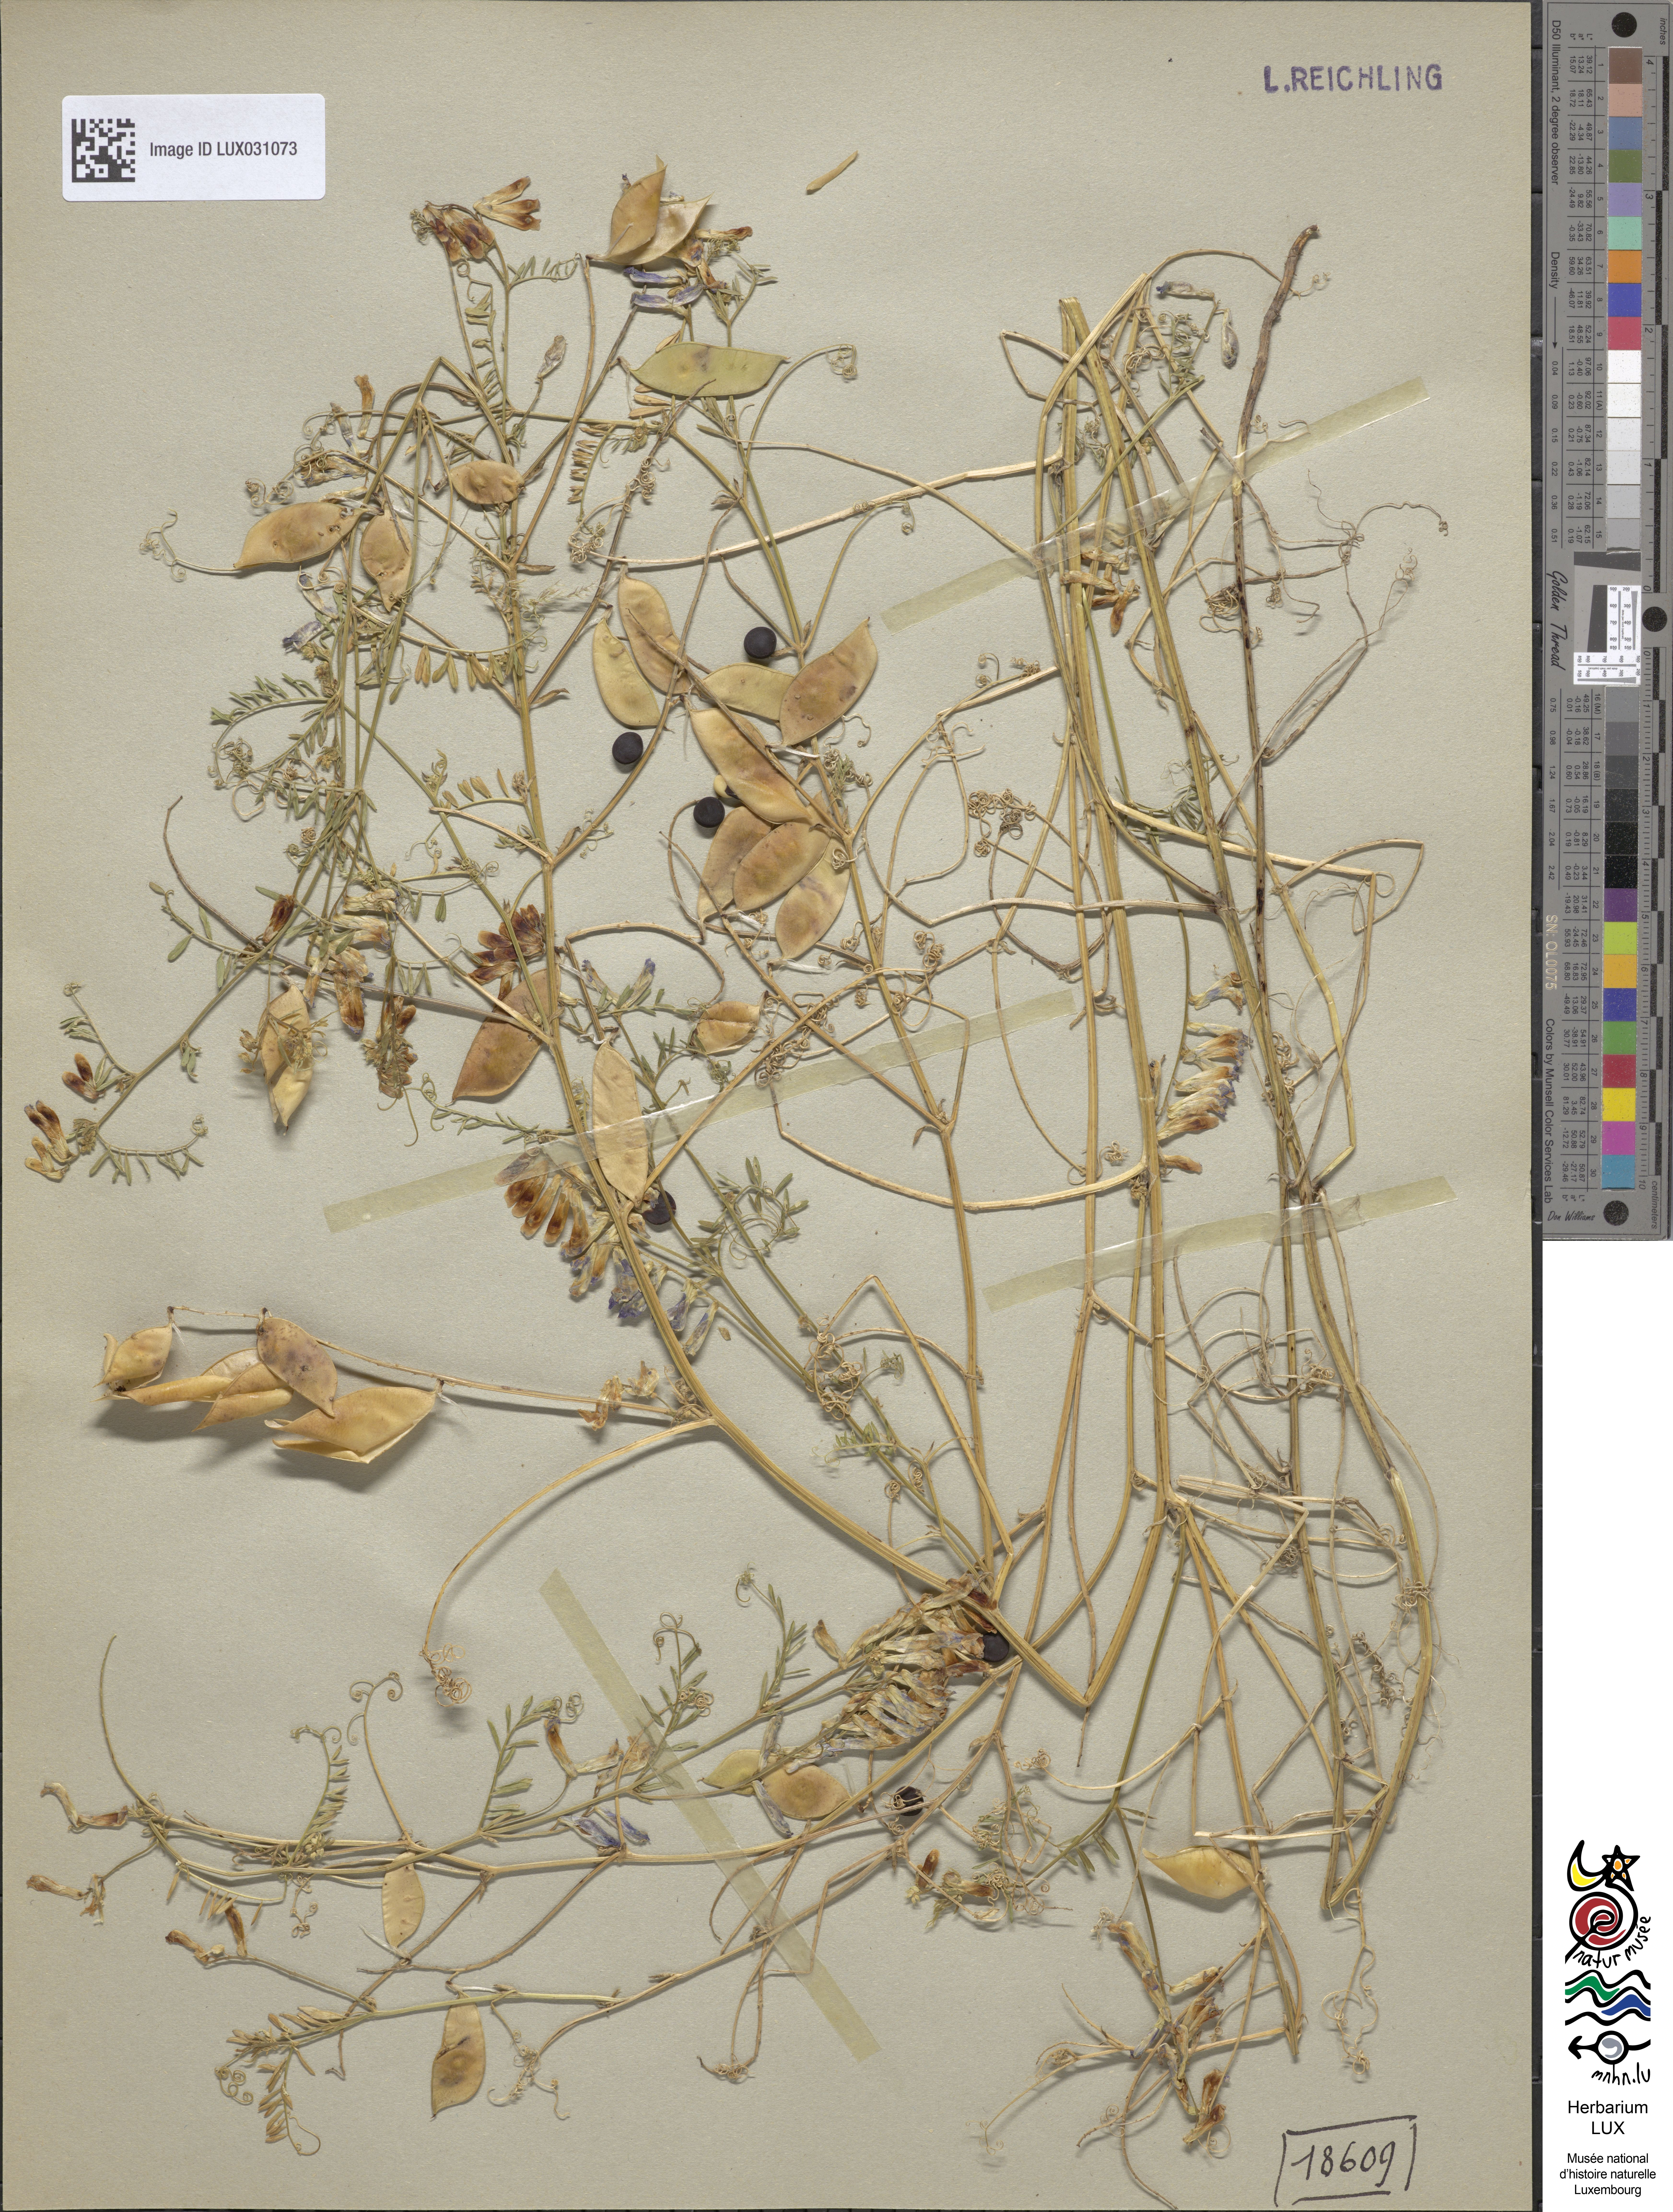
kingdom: Plantae
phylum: Tracheophyta
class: Magnoliopsida
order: Fabales
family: Fabaceae
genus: Vicia
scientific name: Vicia villosa
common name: Fodder vetch
